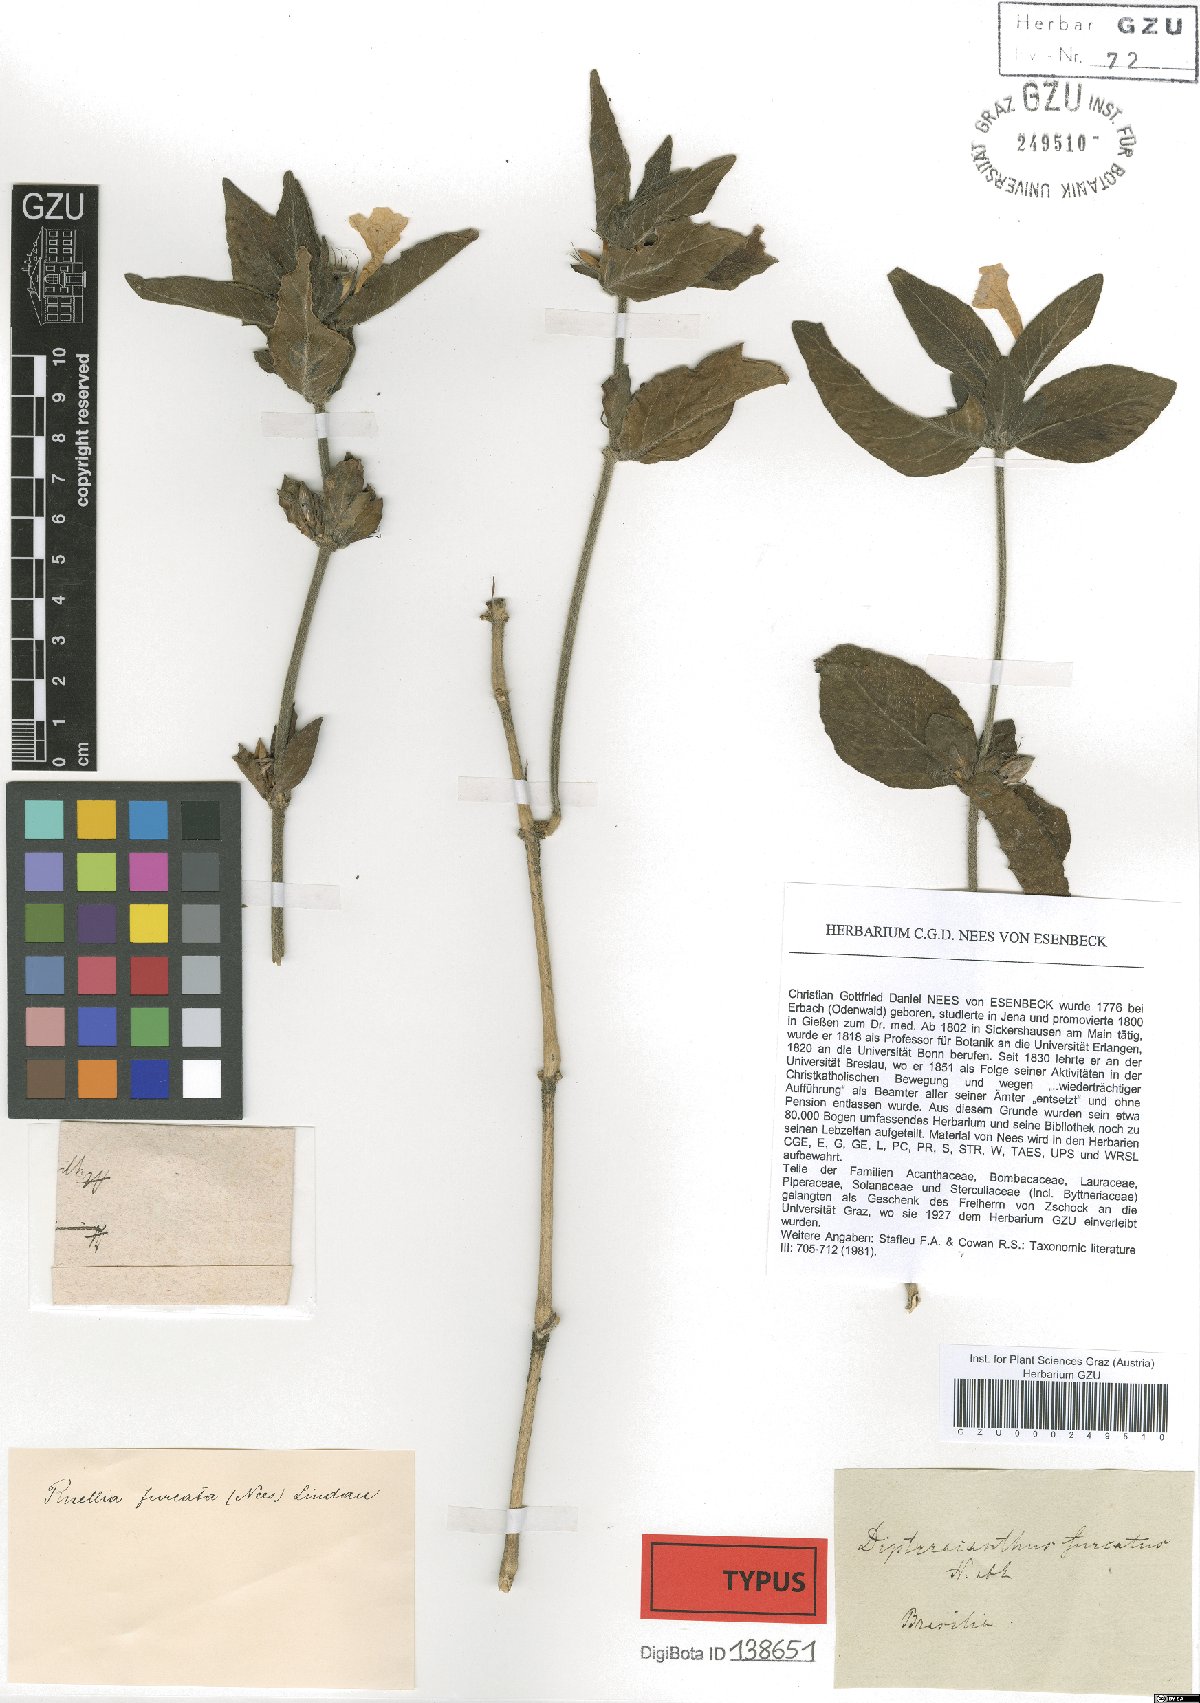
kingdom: Plantae
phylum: Tracheophyta
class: Magnoliopsida
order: Lamiales
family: Acanthaceae
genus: Ruellia
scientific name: Ruellia furcata
